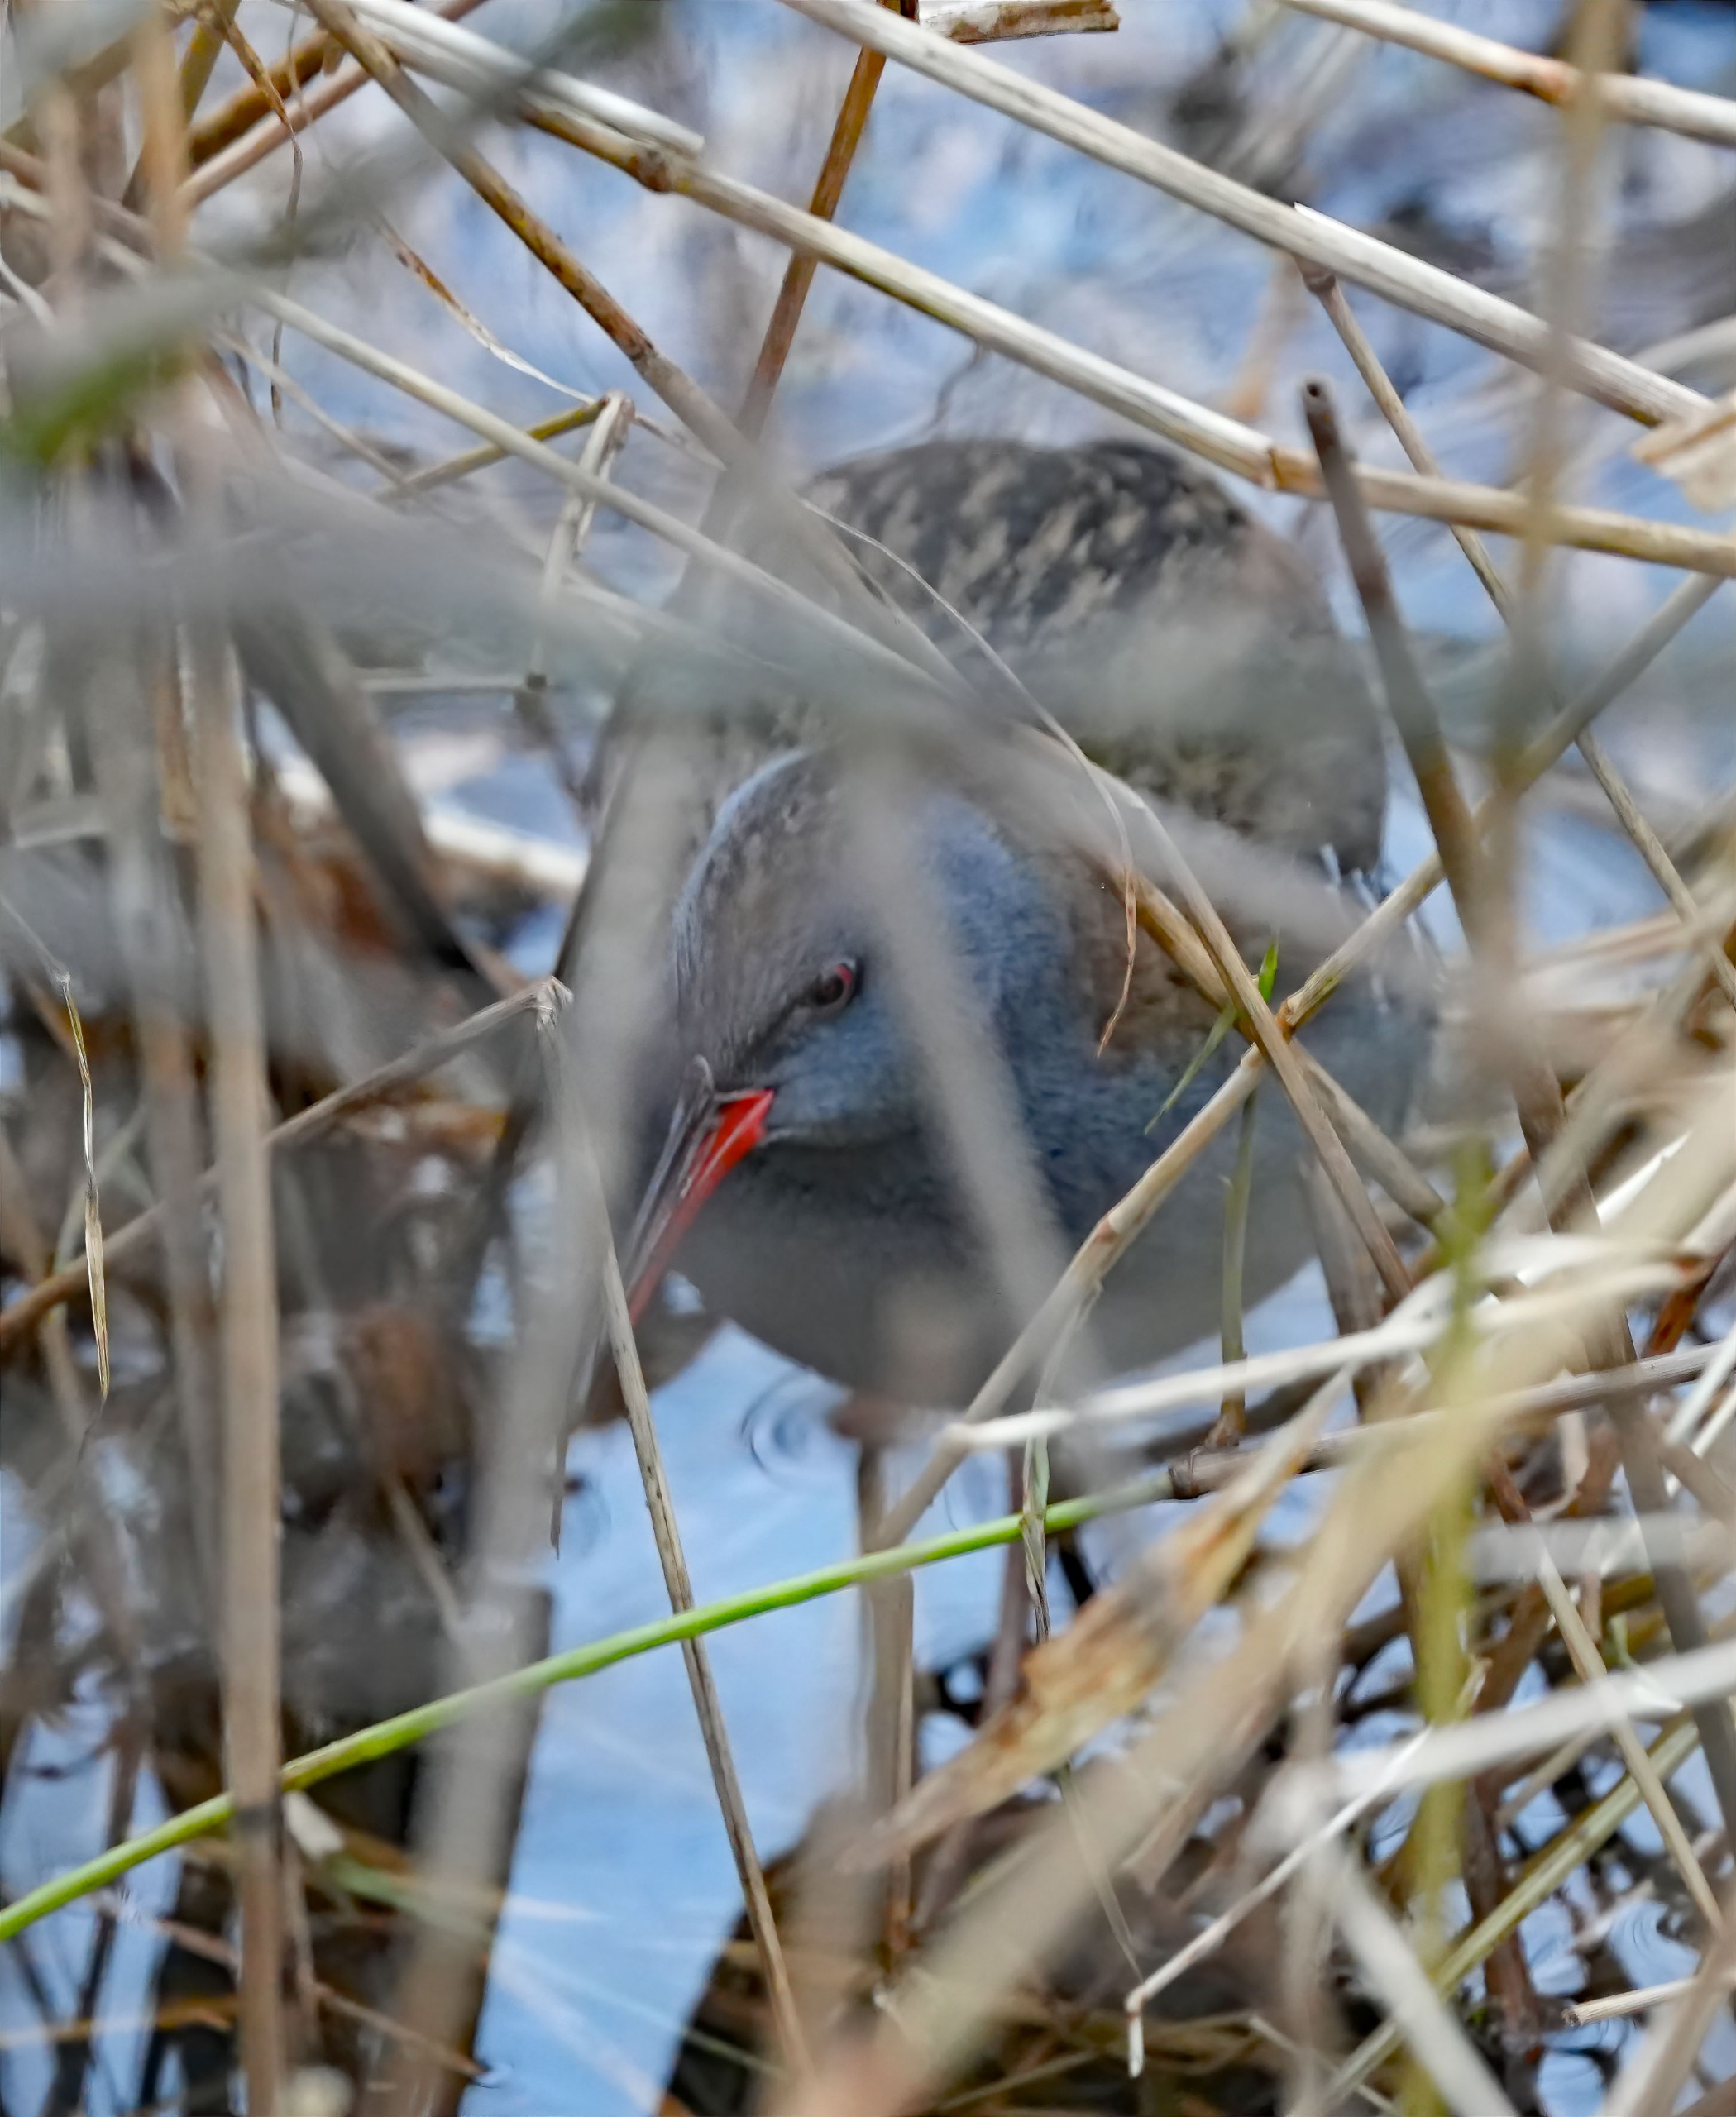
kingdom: Animalia
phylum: Chordata
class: Aves
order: Gruiformes
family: Rallidae
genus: Rallus
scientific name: Rallus aquaticus
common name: Vandrikse
